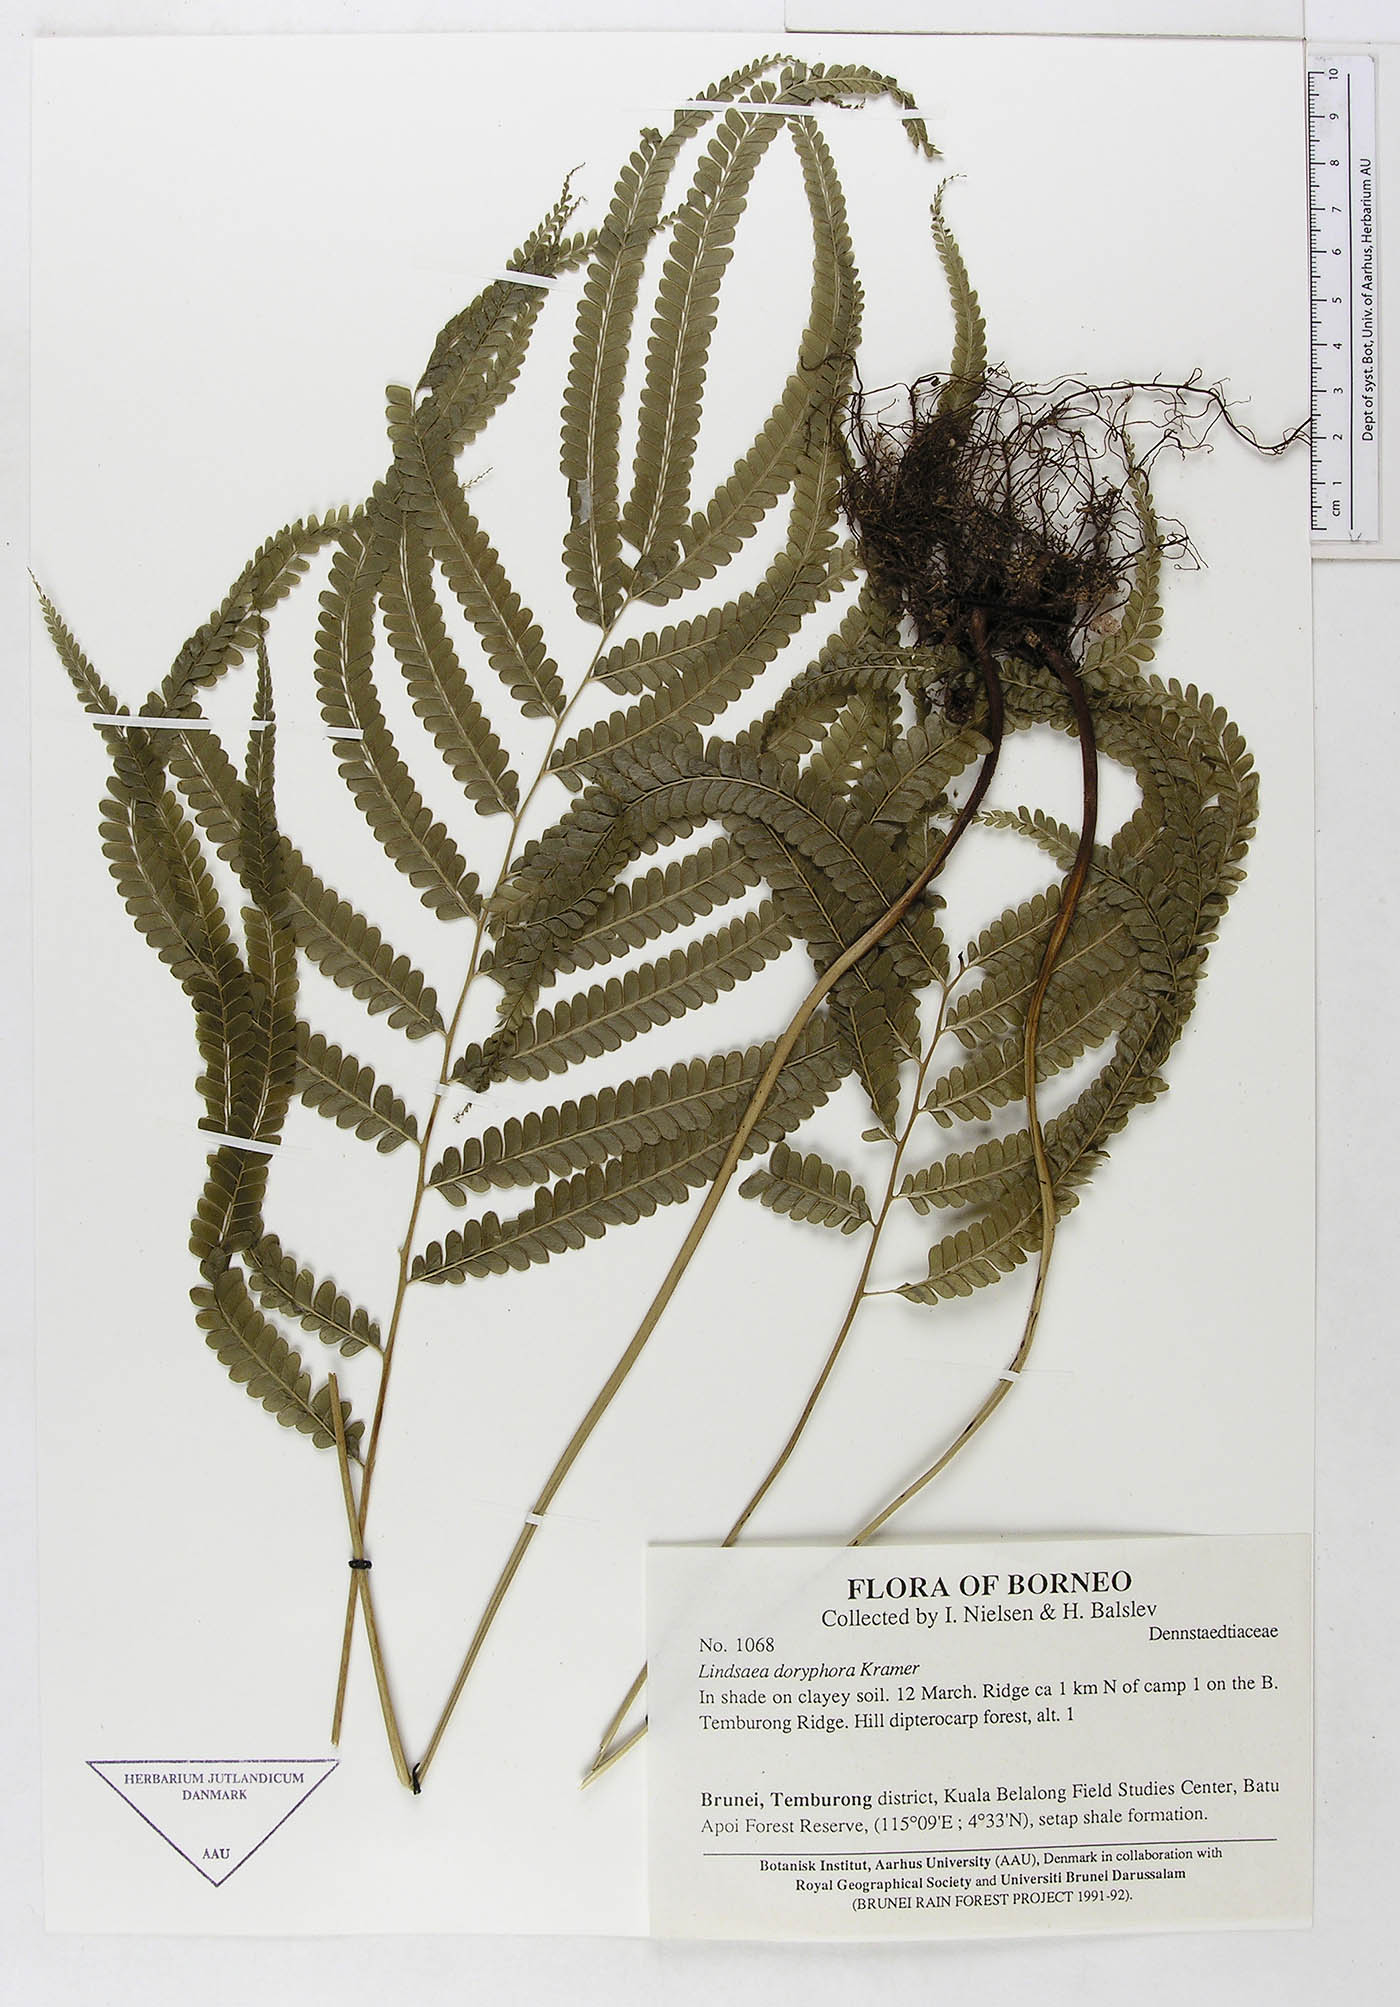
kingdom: Plantae
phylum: Tracheophyta
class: Polypodiopsida
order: Polypodiales
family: Lindsaeaceae
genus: Lindsaea
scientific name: Lindsaea doryphora
